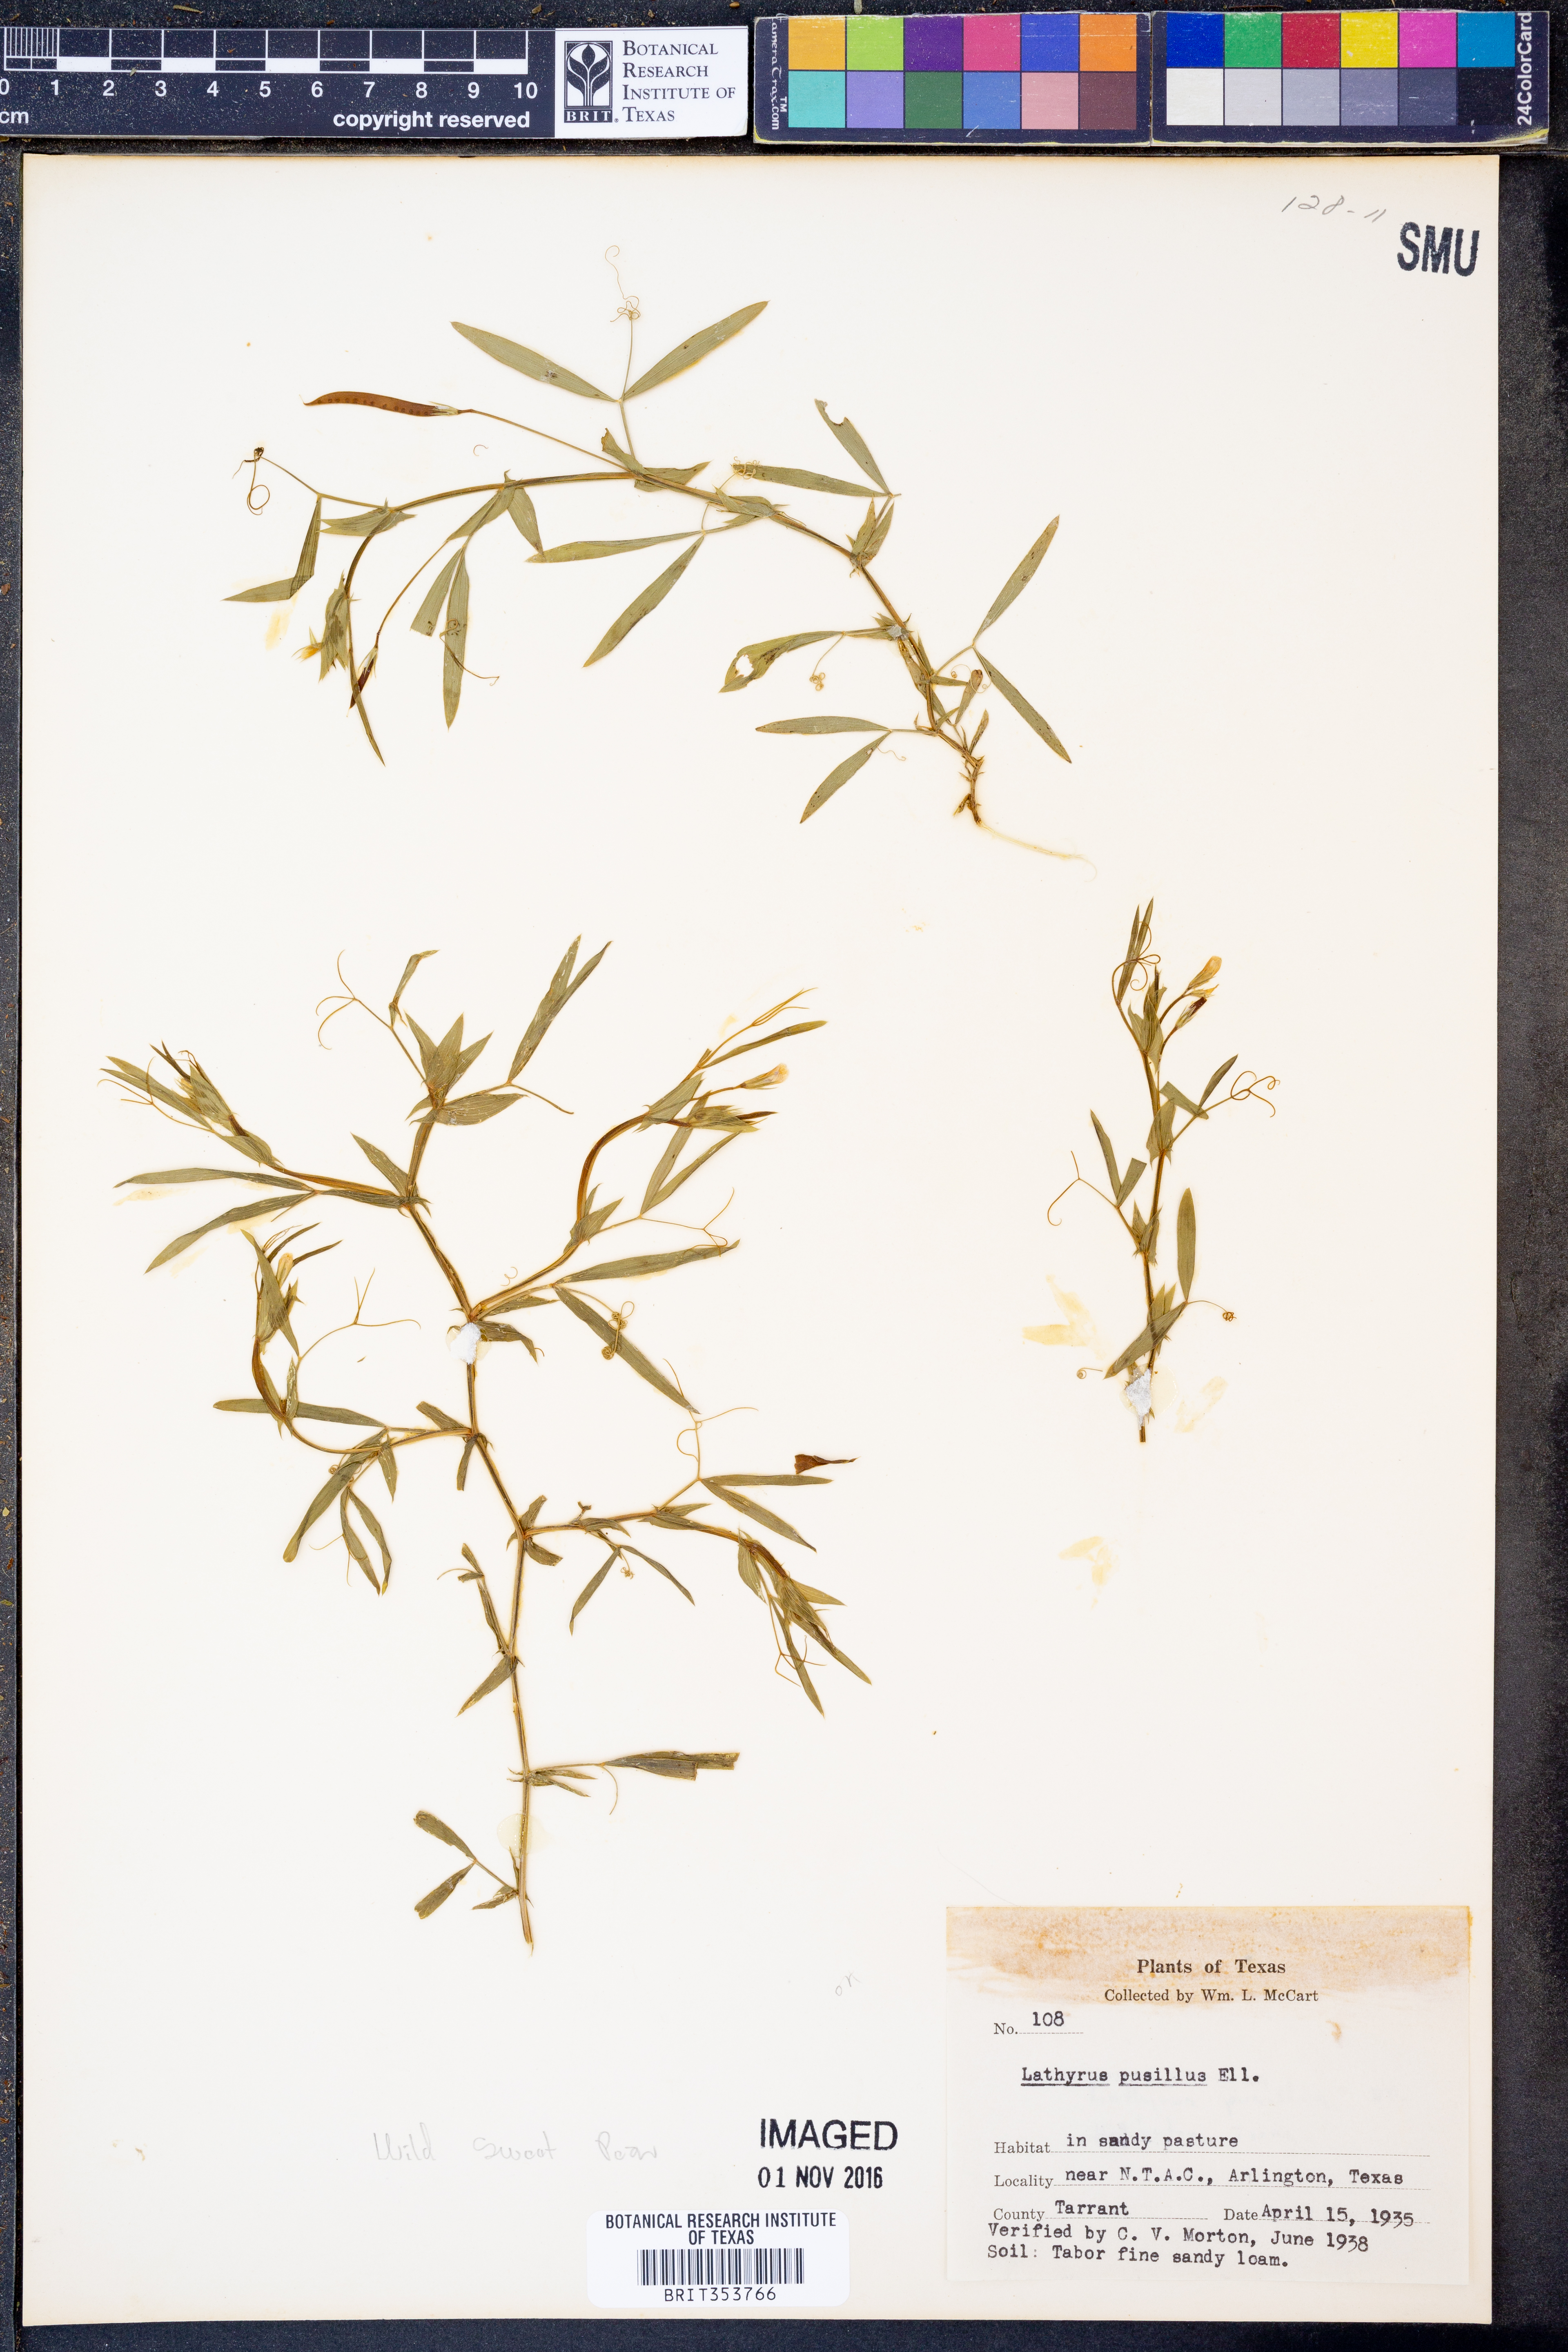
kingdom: Plantae
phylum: Tracheophyta
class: Magnoliopsida
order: Fabales
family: Fabaceae
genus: Lathyrus
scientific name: Lathyrus pusillus
